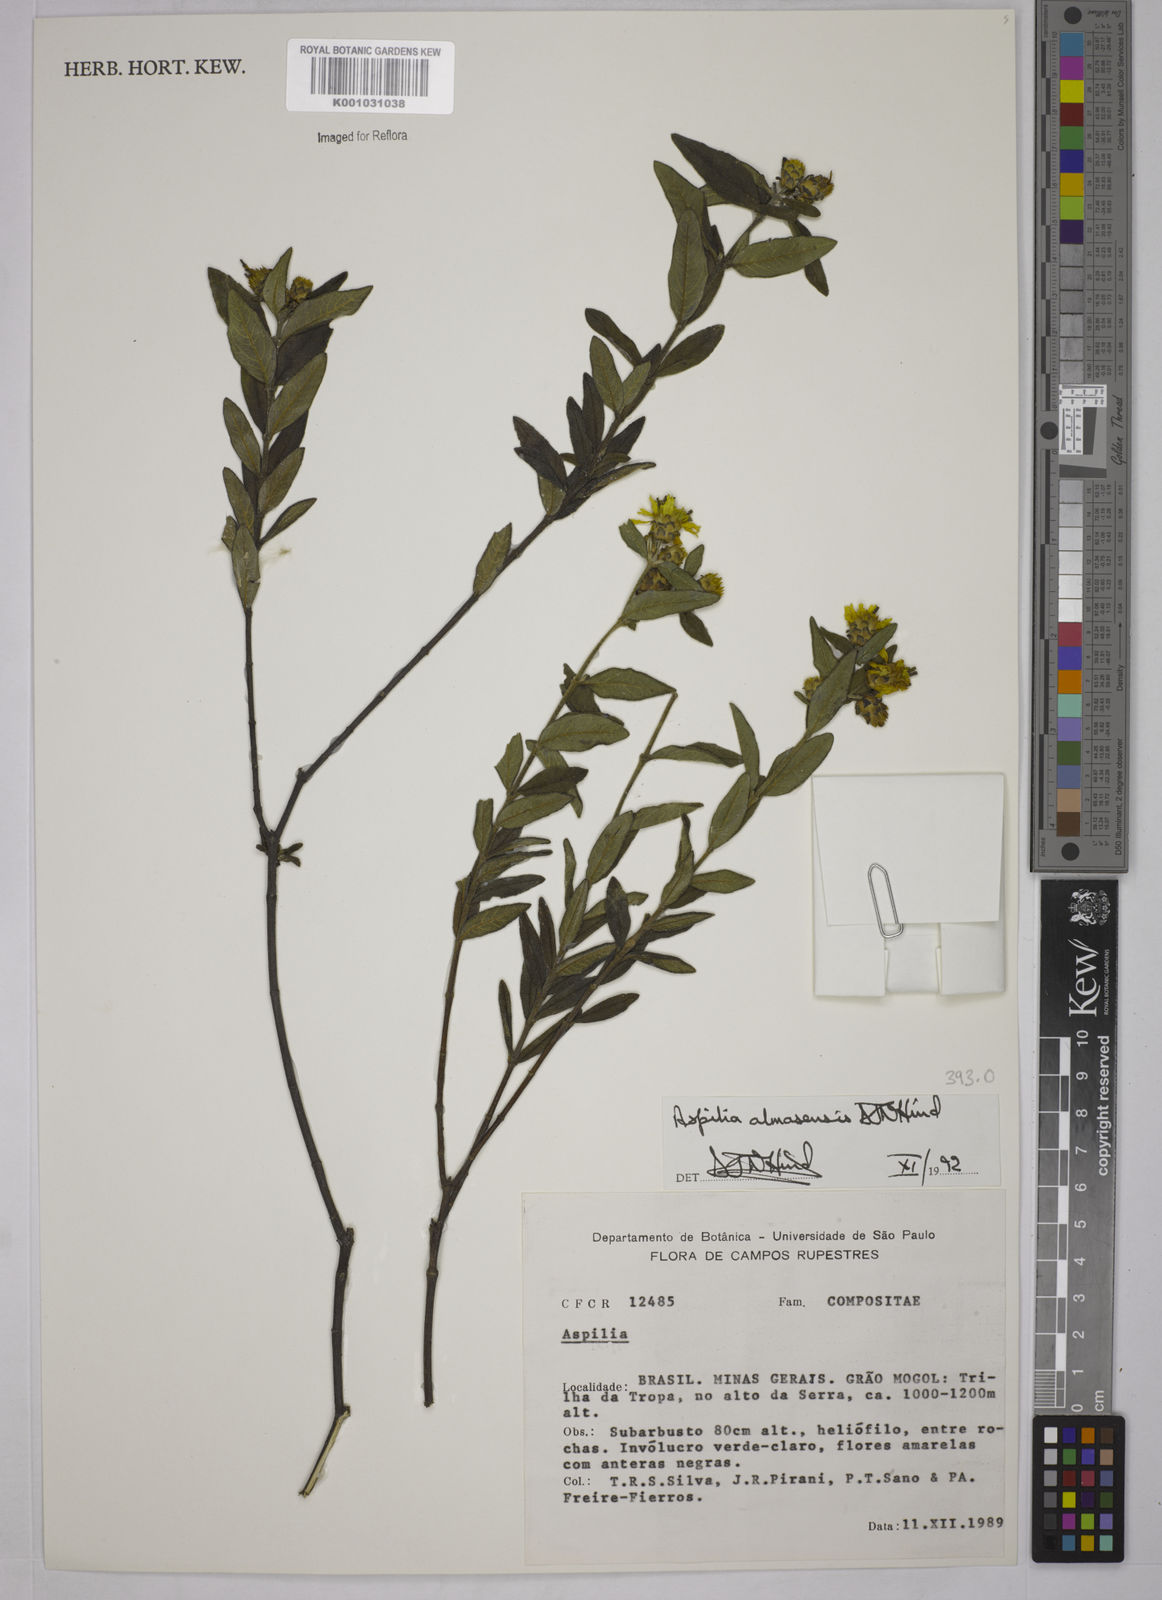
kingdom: Plantae
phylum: Tracheophyta
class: Magnoliopsida
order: Asterales
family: Asteraceae
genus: Aspilia
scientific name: Aspilia almasensis
